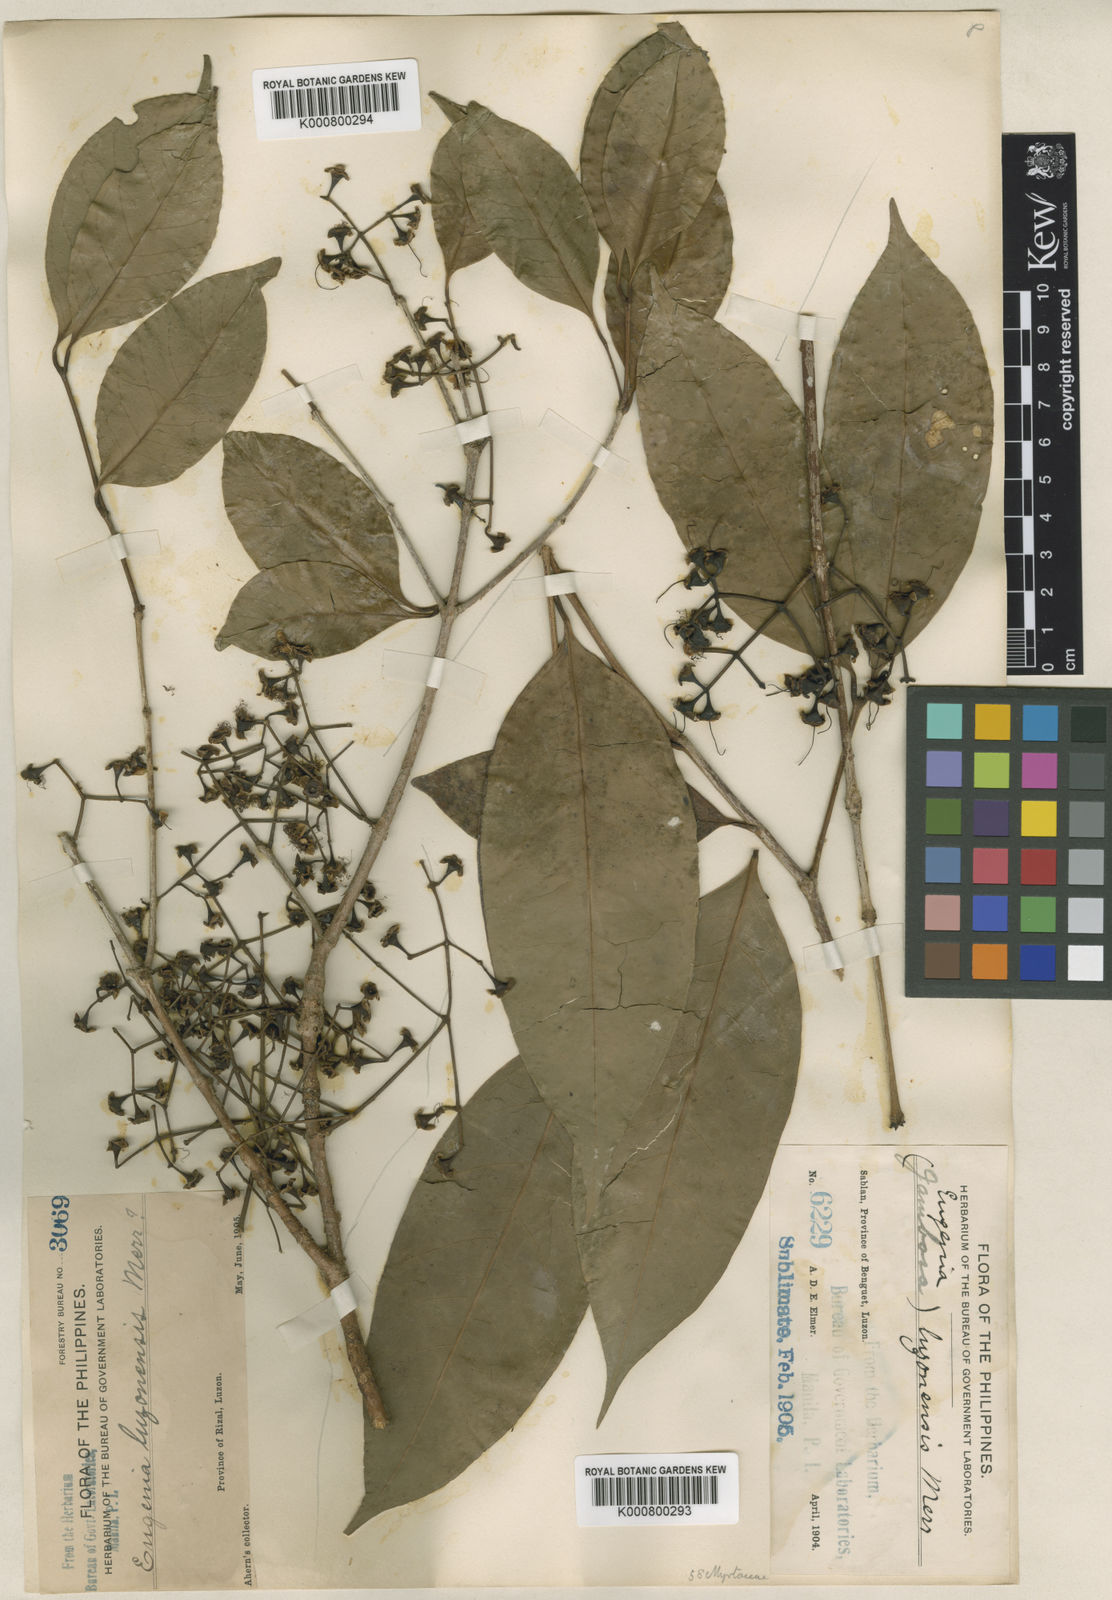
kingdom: Plantae
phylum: Tracheophyta
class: Magnoliopsida
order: Myrtales
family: Myrtaceae
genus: Syzygium
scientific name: Syzygium luzonense
